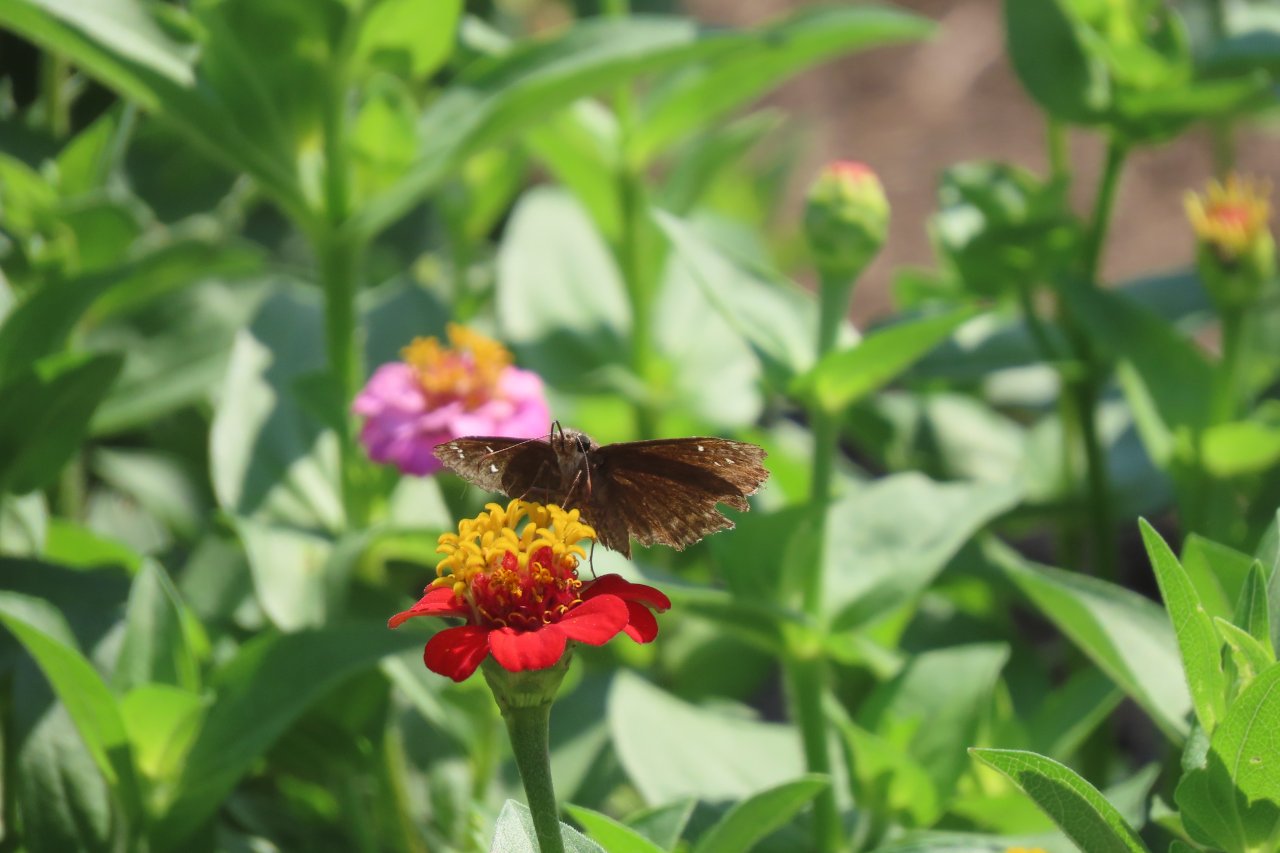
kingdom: Animalia
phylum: Arthropoda
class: Insecta
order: Lepidoptera
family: Hesperiidae
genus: Gesta
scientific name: Gesta
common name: Horace's Duskywing
